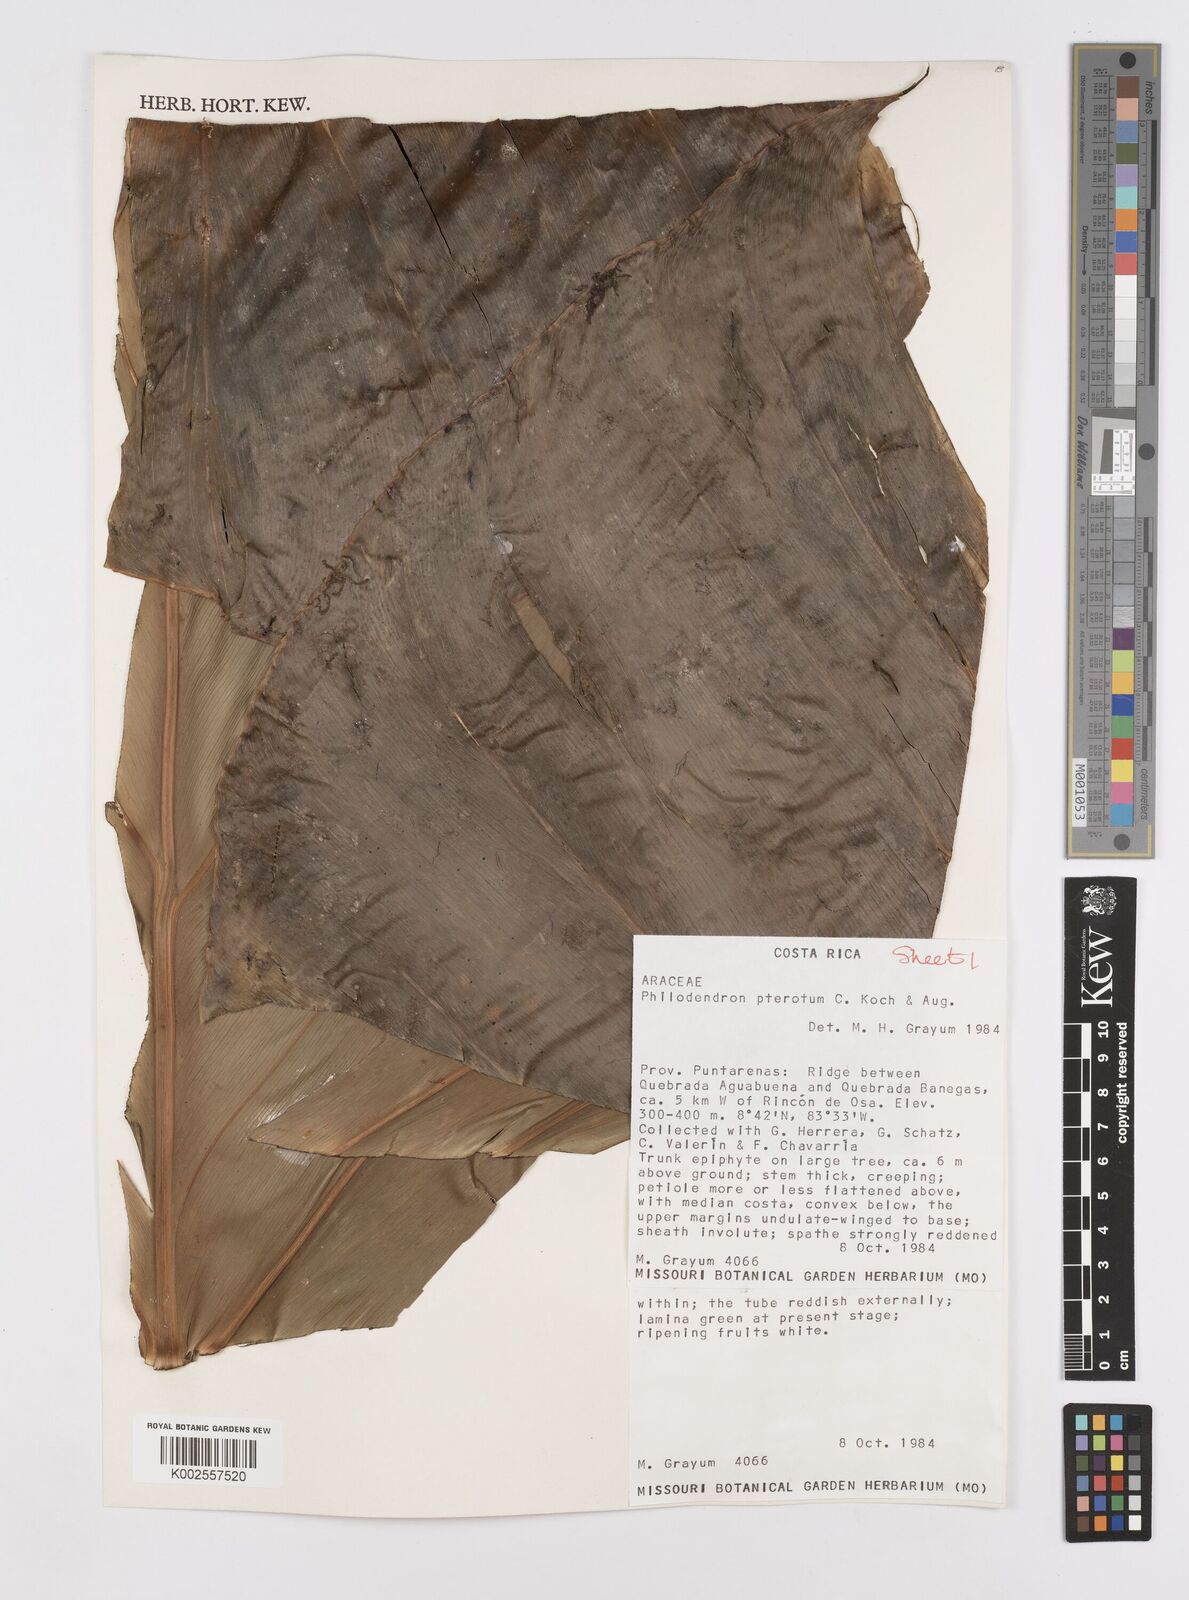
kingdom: Plantae
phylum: Tracheophyta
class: Liliopsida
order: Alismatales
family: Araceae
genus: Philodendron
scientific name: Philodendron pterotum
